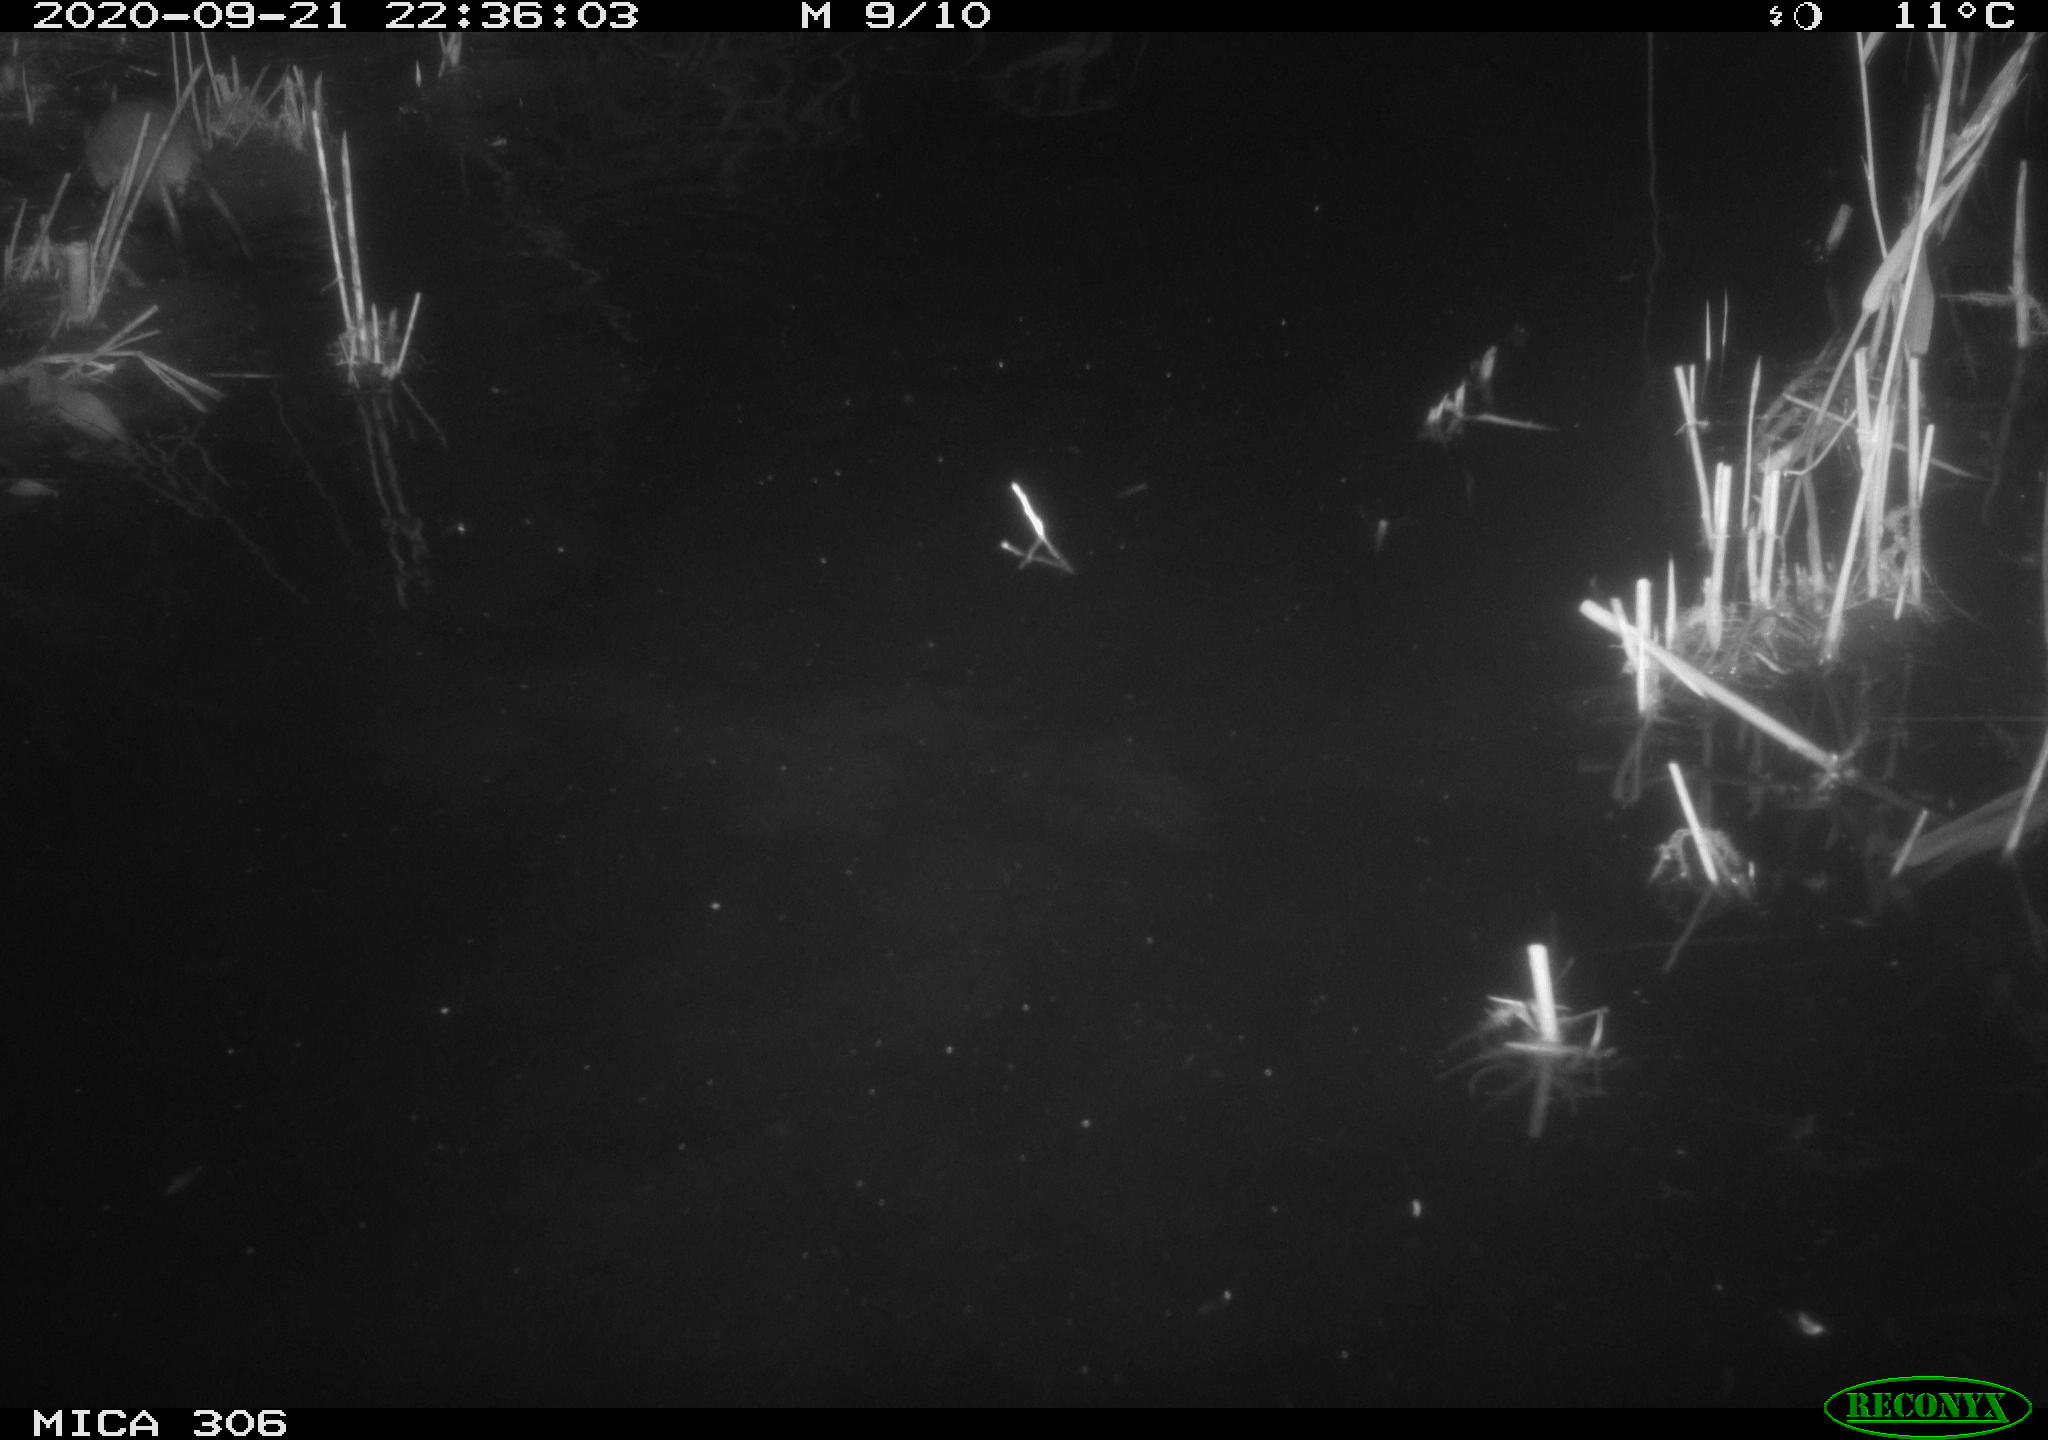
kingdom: Animalia
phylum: Chordata
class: Mammalia
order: Rodentia
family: Muridae
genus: Rattus
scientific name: Rattus norvegicus
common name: Brown rat
